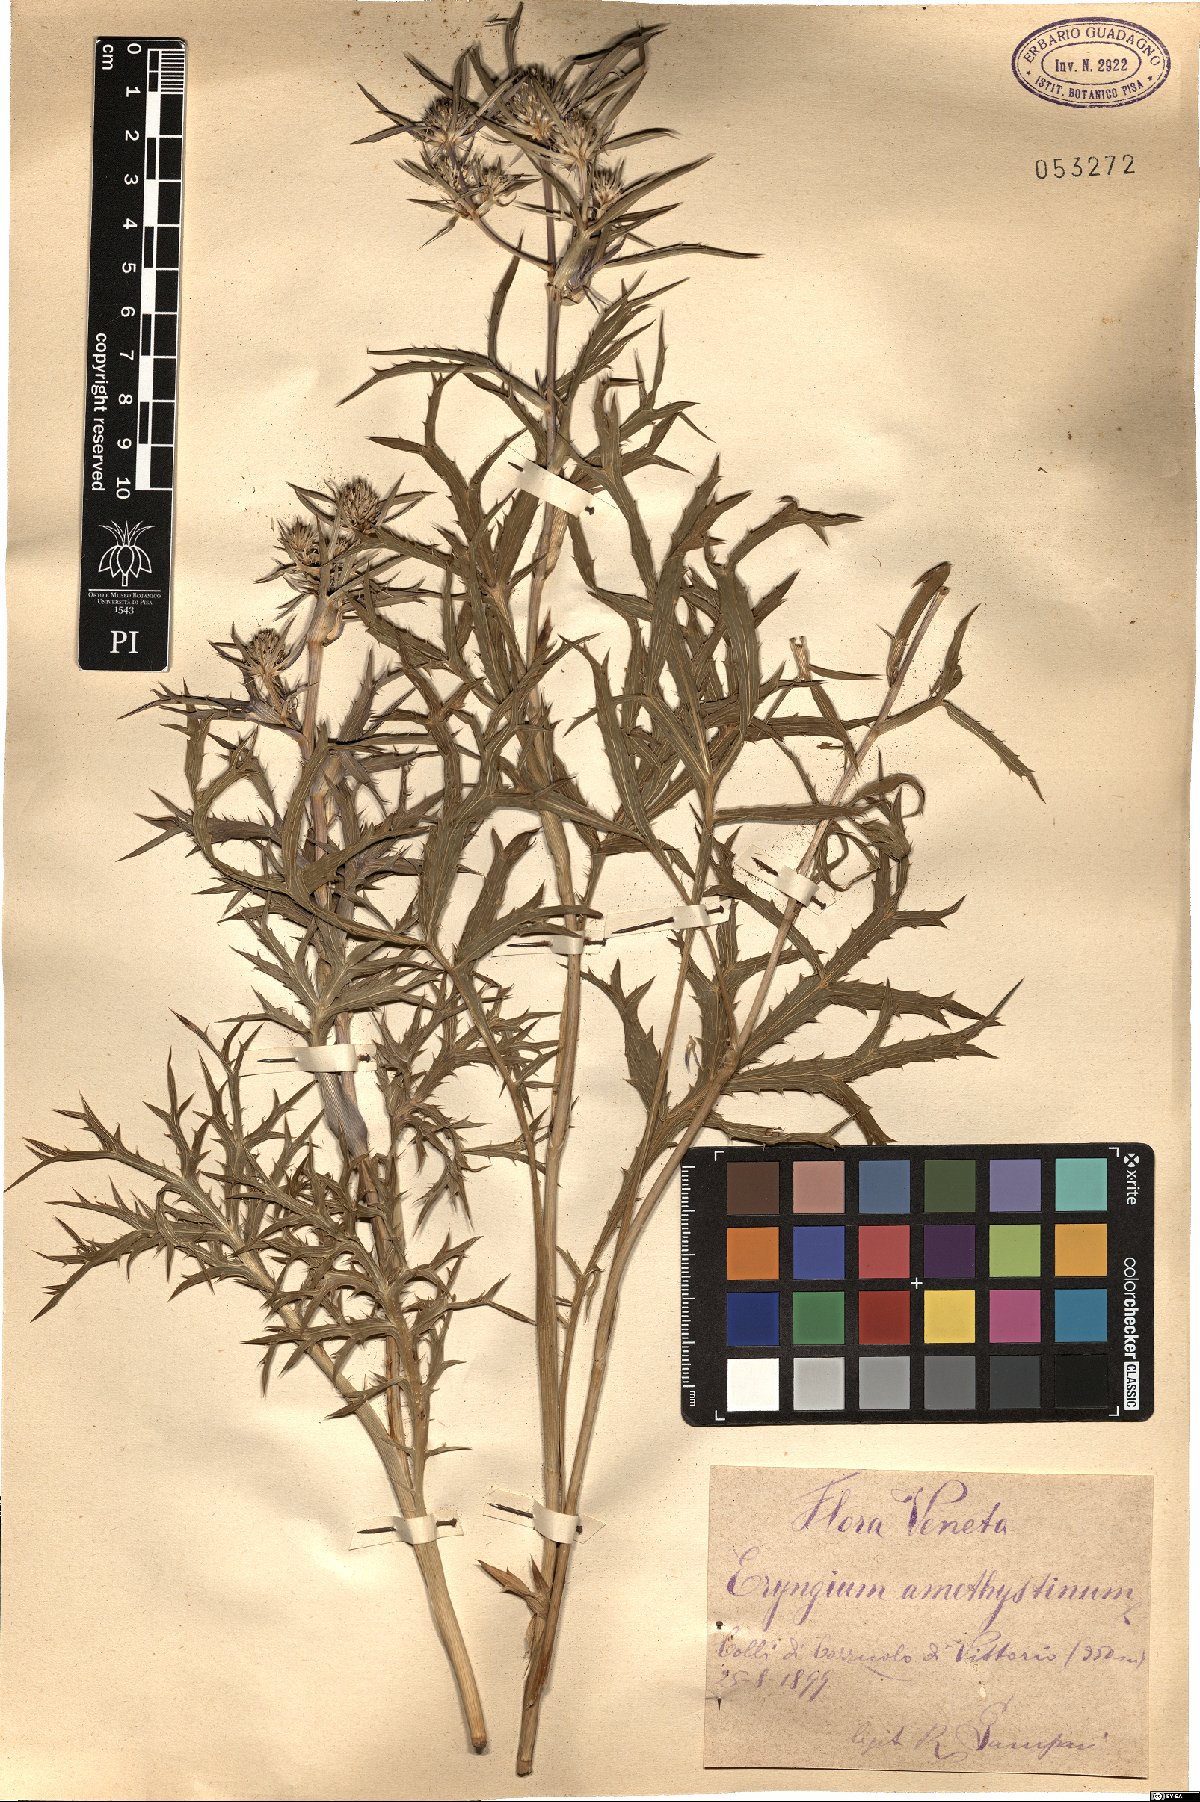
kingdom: Plantae
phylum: Tracheophyta
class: Magnoliopsida
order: Apiales
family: Apiaceae
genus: Eryngium
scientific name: Eryngium amethystinum
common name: Amethyst eryngo
